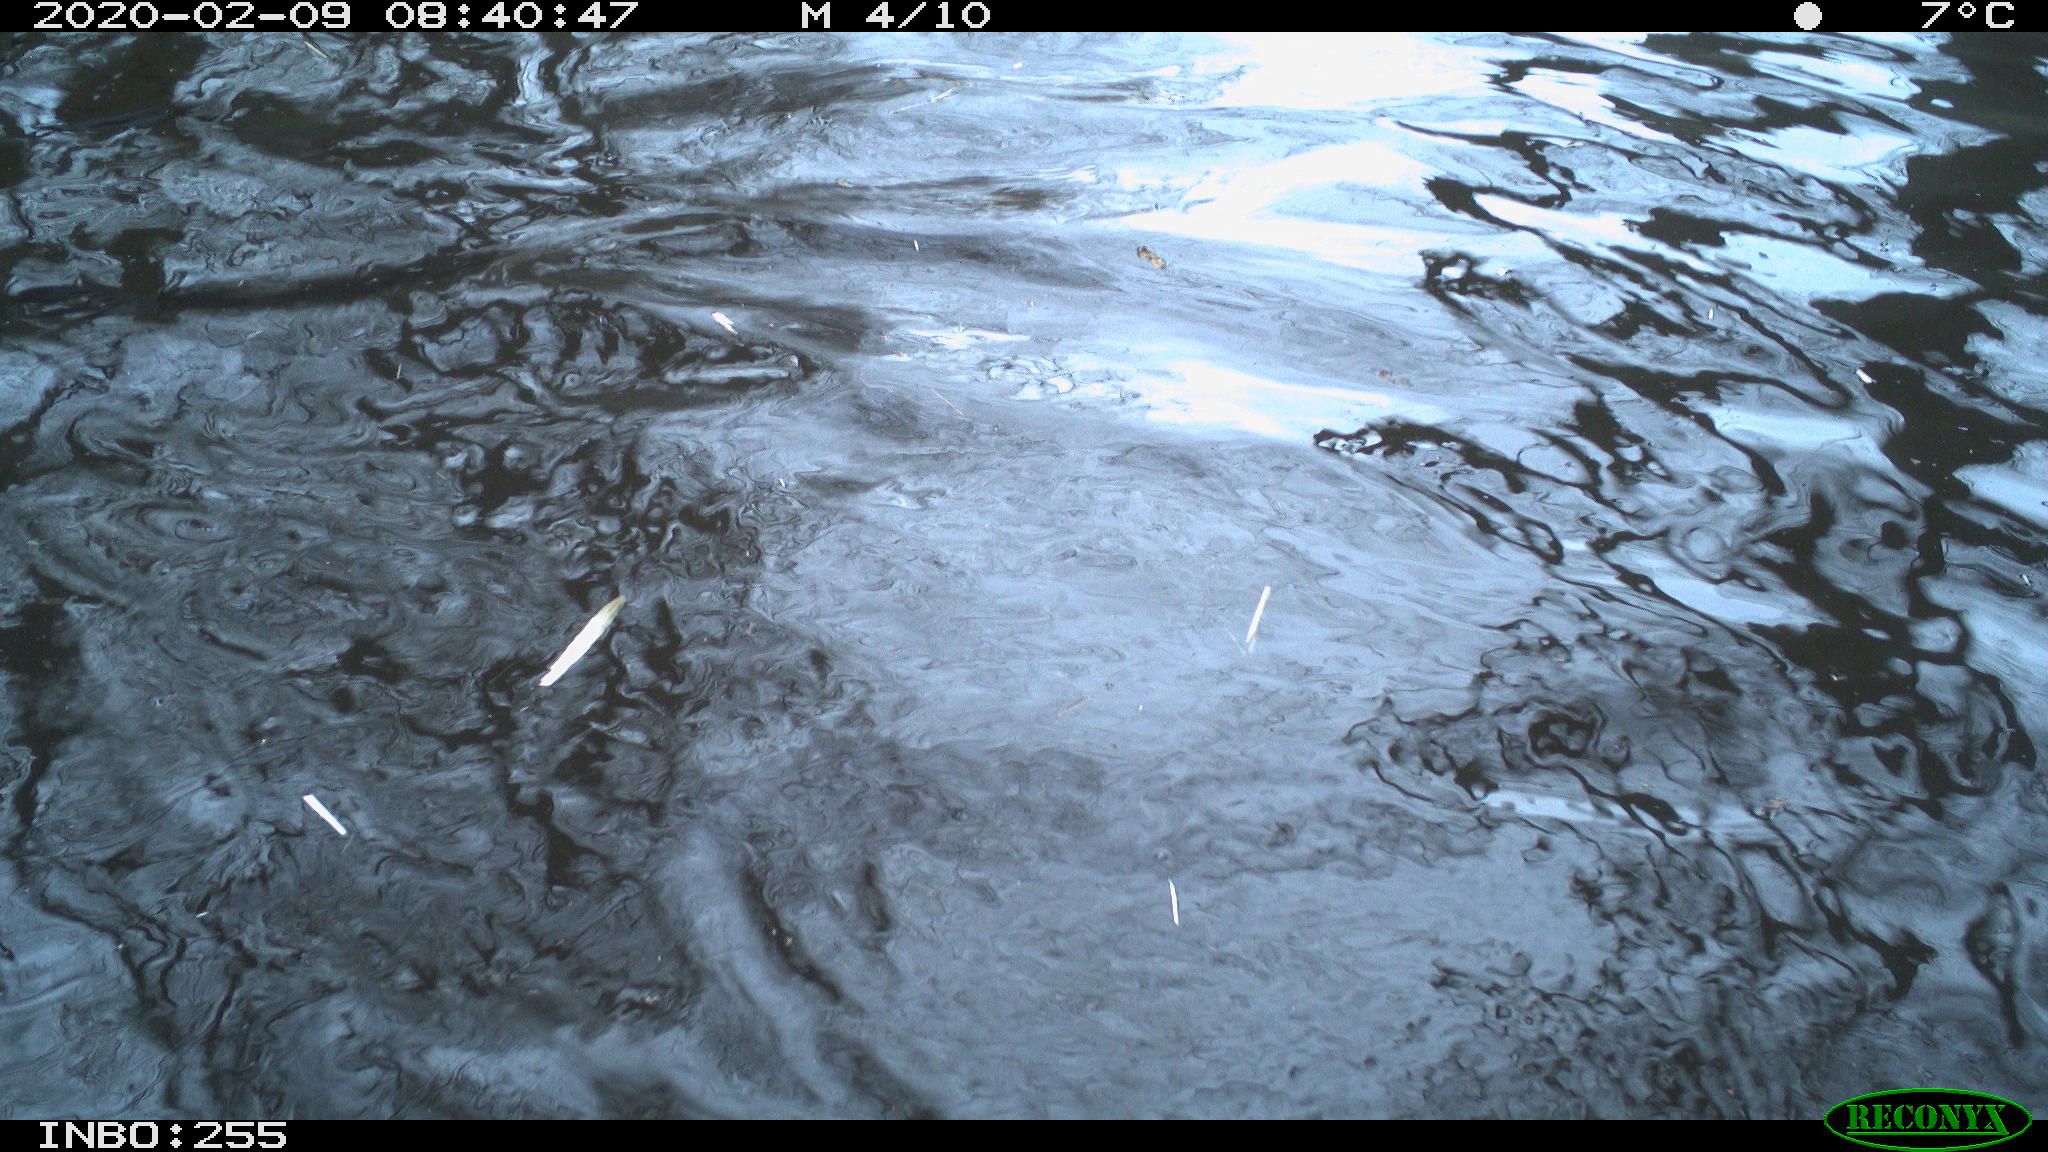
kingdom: Animalia
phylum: Chordata
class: Aves
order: Gruiformes
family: Rallidae
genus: Fulica
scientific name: Fulica atra
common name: Eurasian coot
